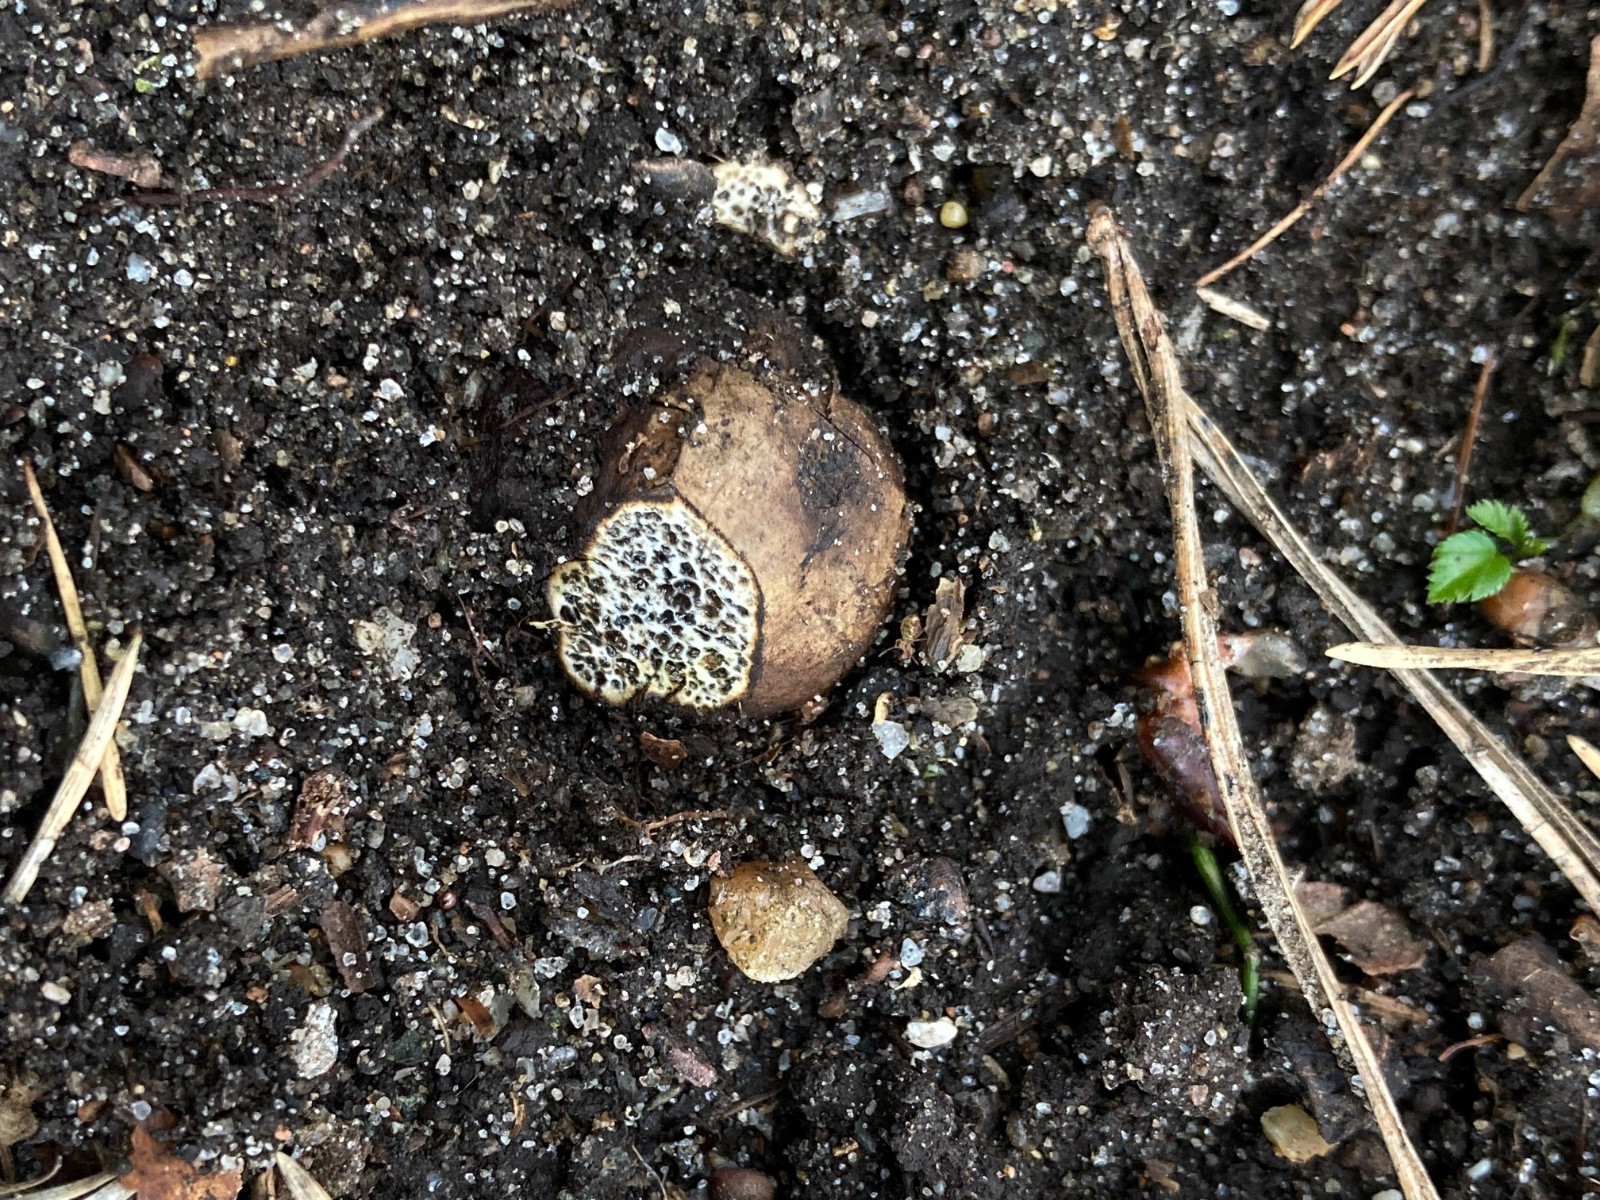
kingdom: Fungi
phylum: Basidiomycota
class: Agaricomycetes
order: Boletales
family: Paxillaceae
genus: Melanogaster
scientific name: Melanogaster ambiguus
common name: lille slimtrøffel
